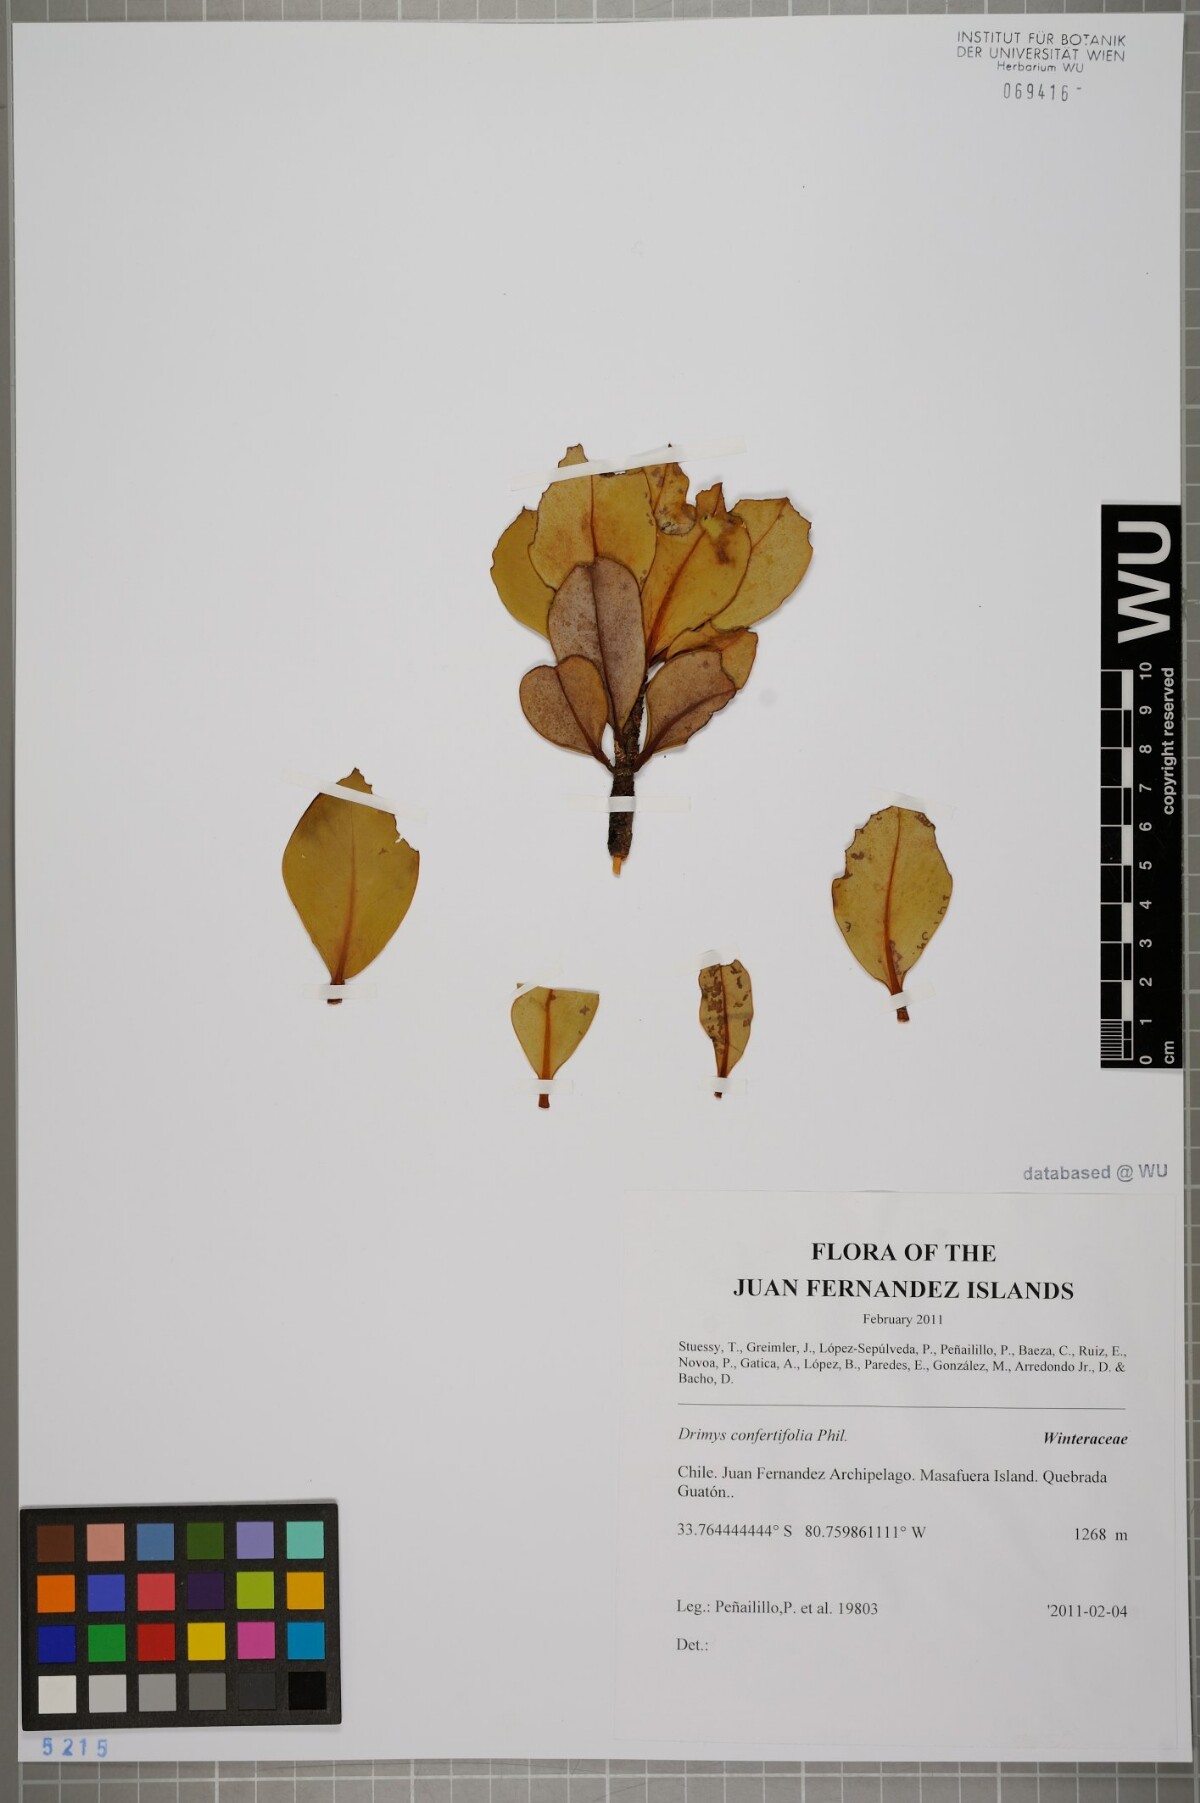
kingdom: Plantae
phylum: Tracheophyta
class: Magnoliopsida
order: Canellales
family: Winteraceae
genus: Drimys
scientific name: Drimys confertiflora
